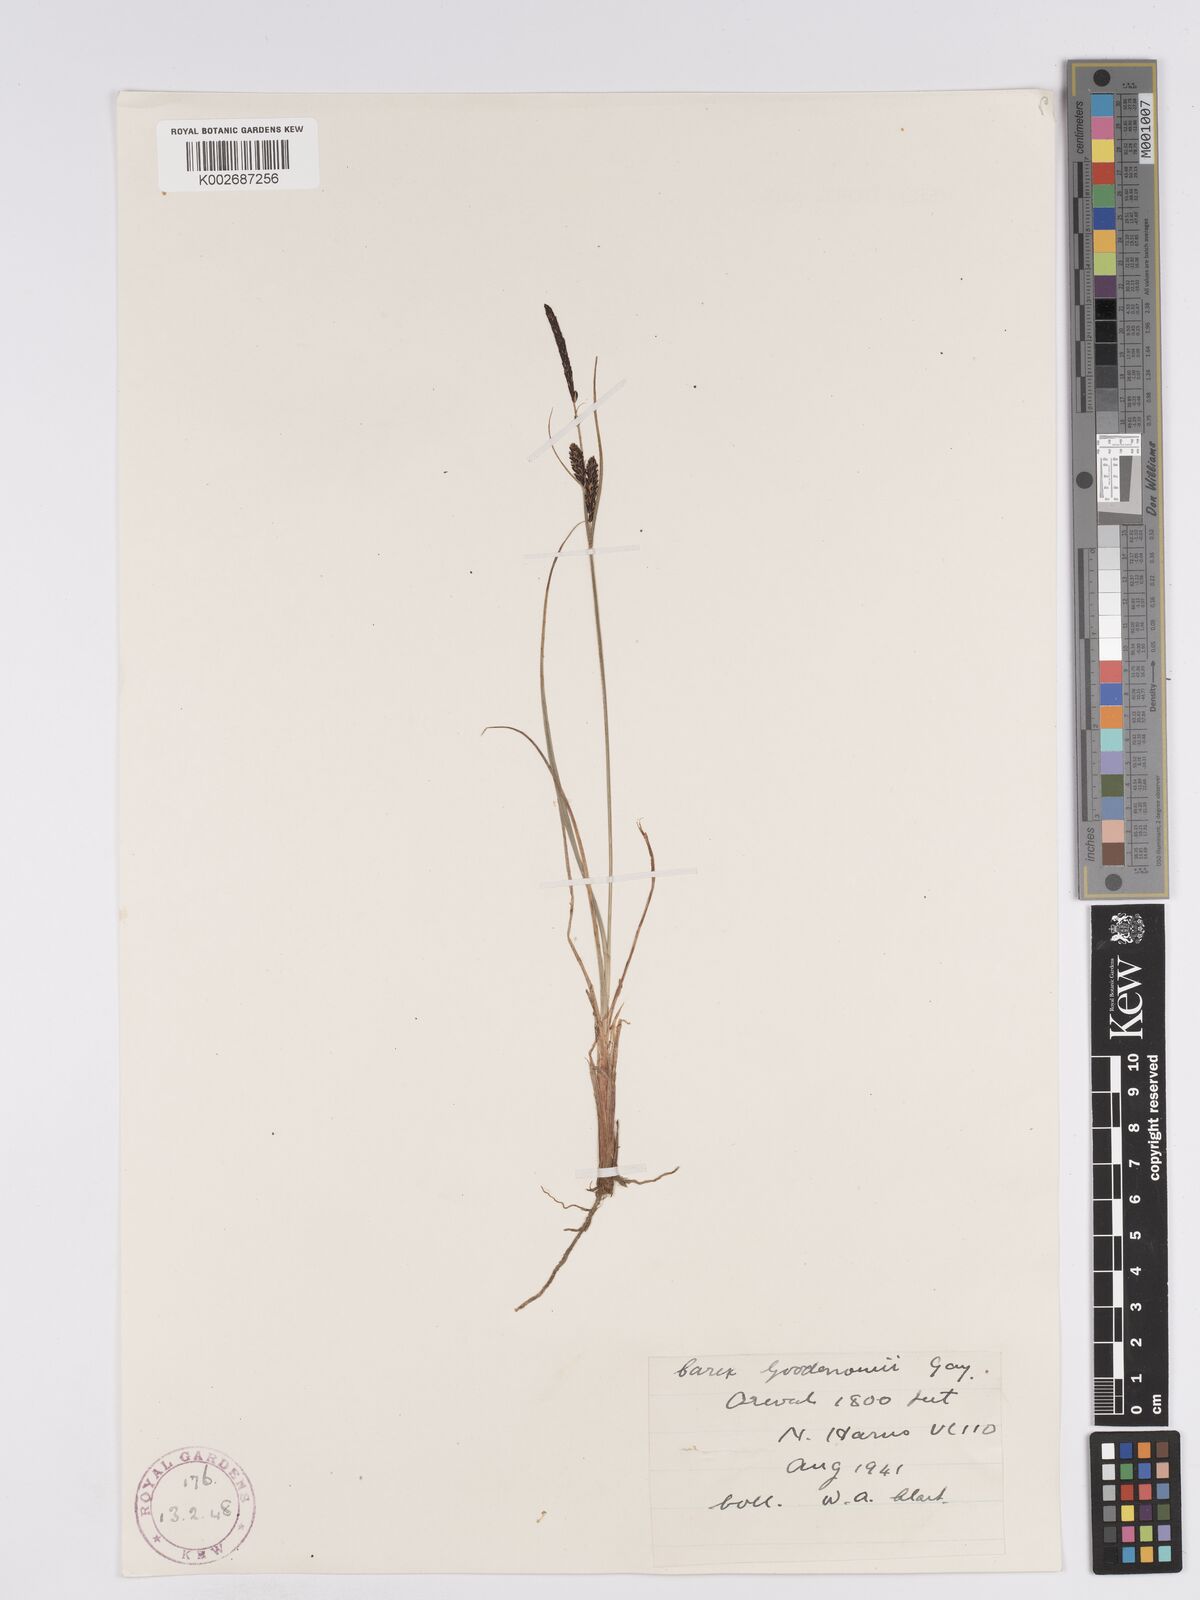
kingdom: Plantae
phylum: Tracheophyta
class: Liliopsida
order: Poales
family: Cyperaceae
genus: Carex
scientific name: Carex nigra
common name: Common sedge
